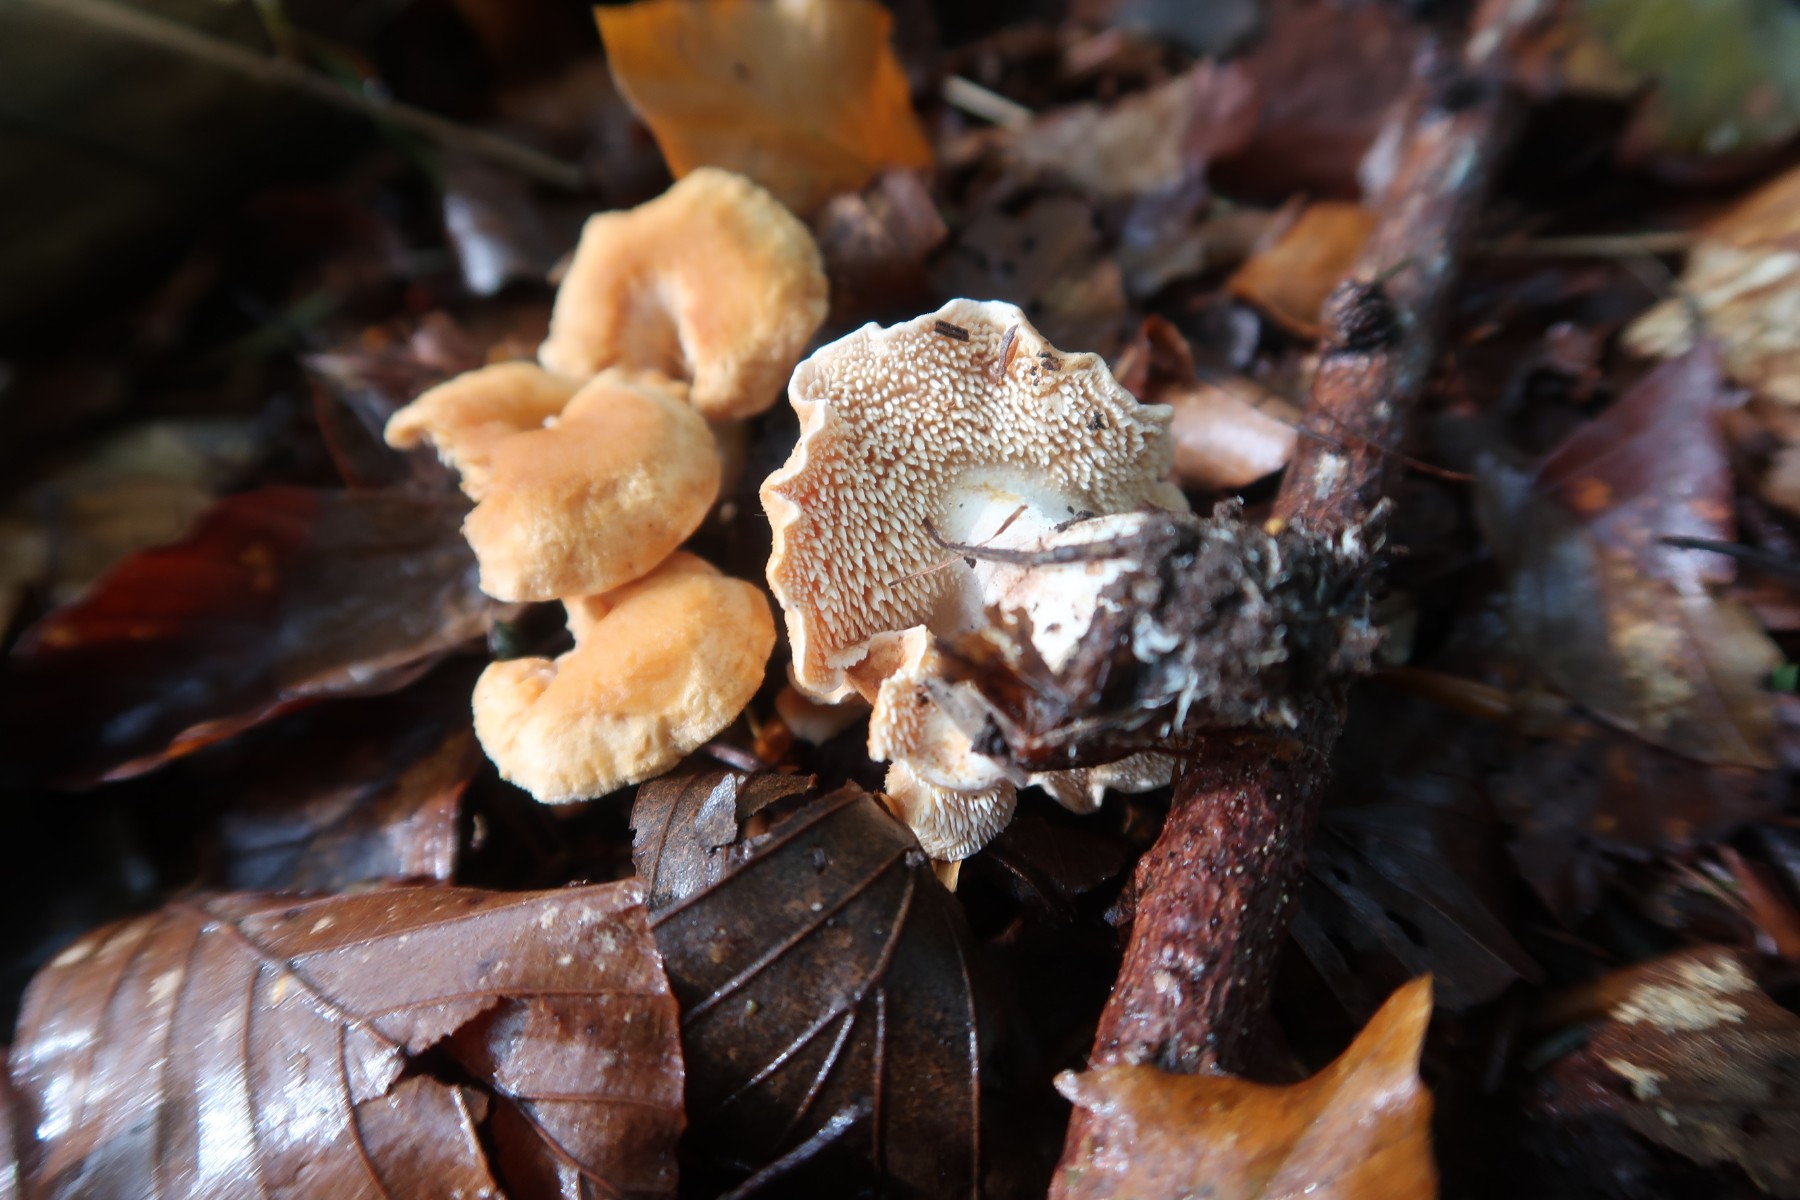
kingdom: Fungi
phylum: Basidiomycota
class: Agaricomycetes
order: Cantharellales
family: Hydnaceae
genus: Hydnum
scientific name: Hydnum mulsicolor
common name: mjødfarvet pigsvamp
